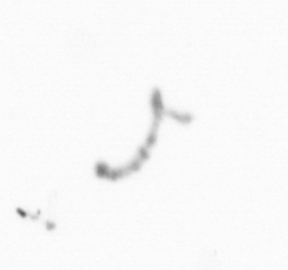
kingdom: Chromista
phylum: Ochrophyta
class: Bacillariophyceae
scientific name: Bacillariophyceae
